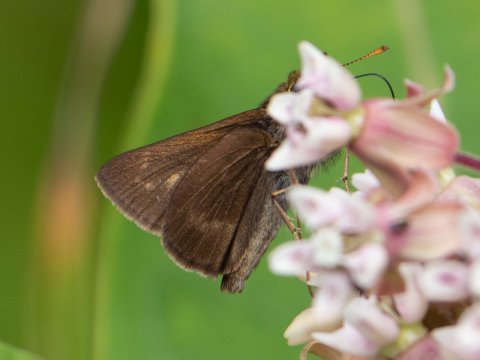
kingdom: Animalia
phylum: Arthropoda
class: Insecta
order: Lepidoptera
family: Hesperiidae
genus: Polites
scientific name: Polites egeremet
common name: Northern Broken-Dash
